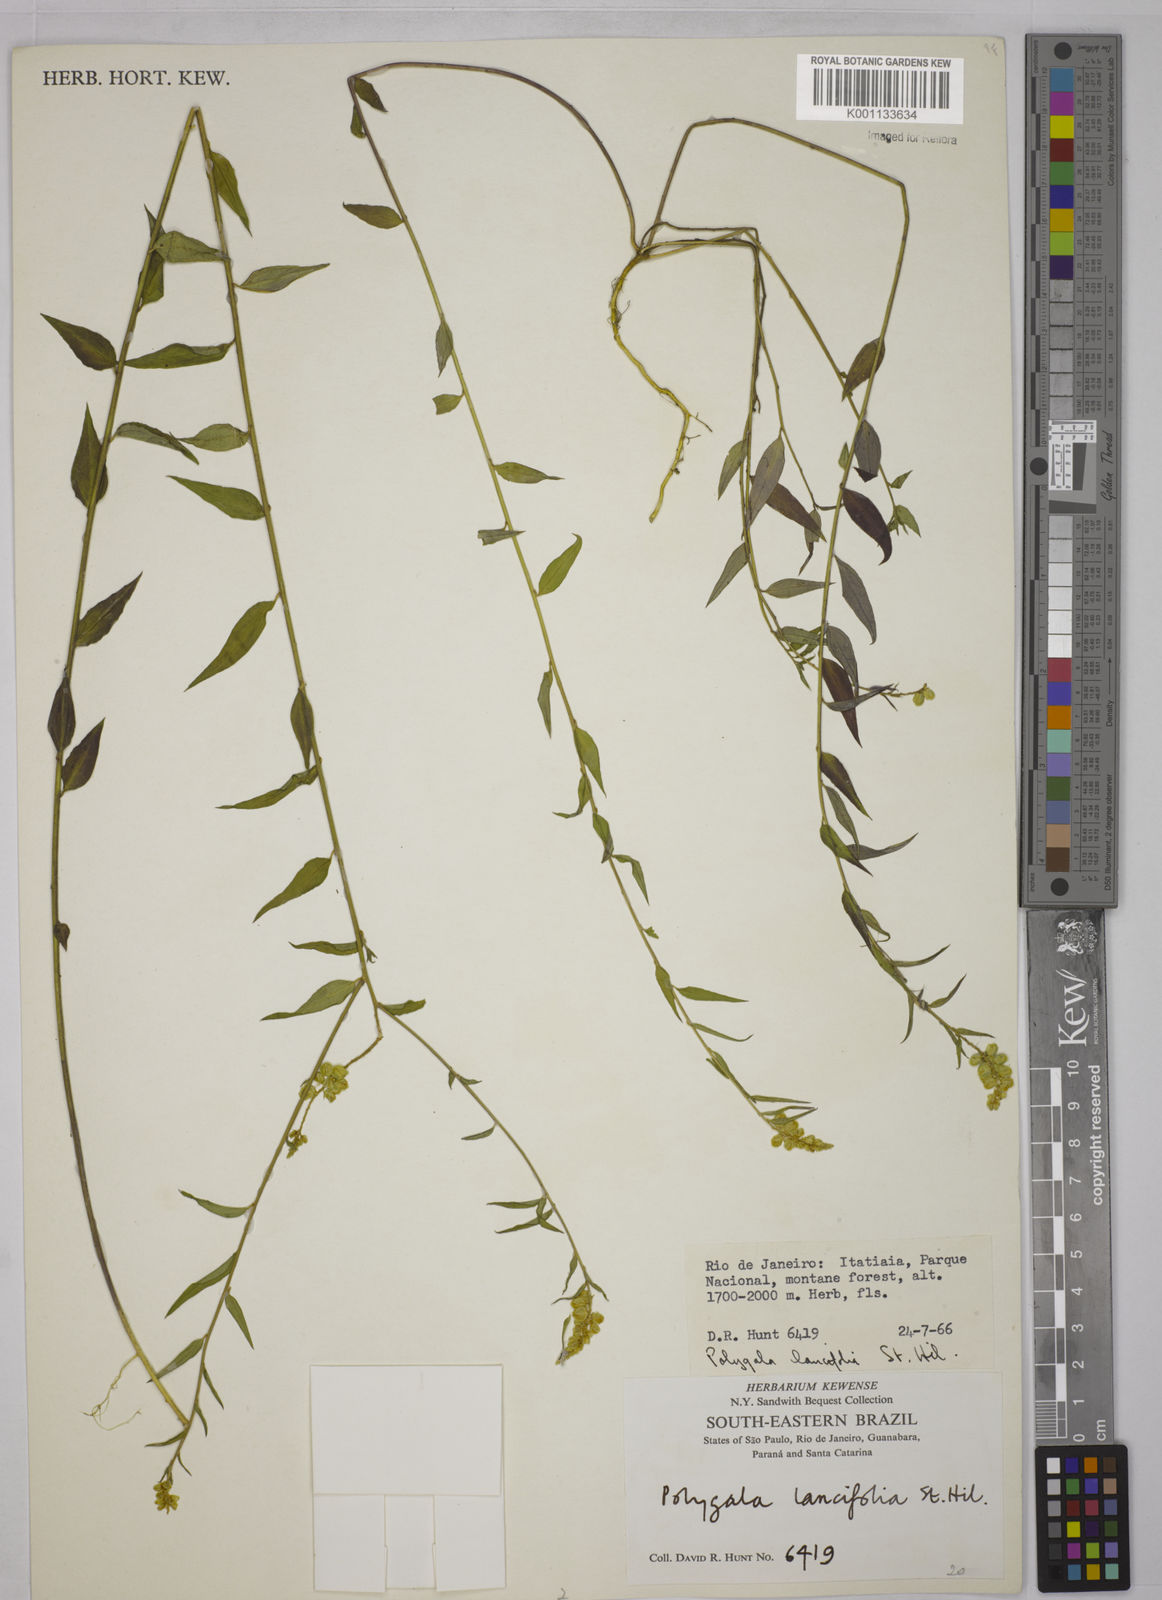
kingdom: Plantae
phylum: Tracheophyta
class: Magnoliopsida
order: Fabales
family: Polygalaceae
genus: Polygala
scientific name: Polygala lancifolia
